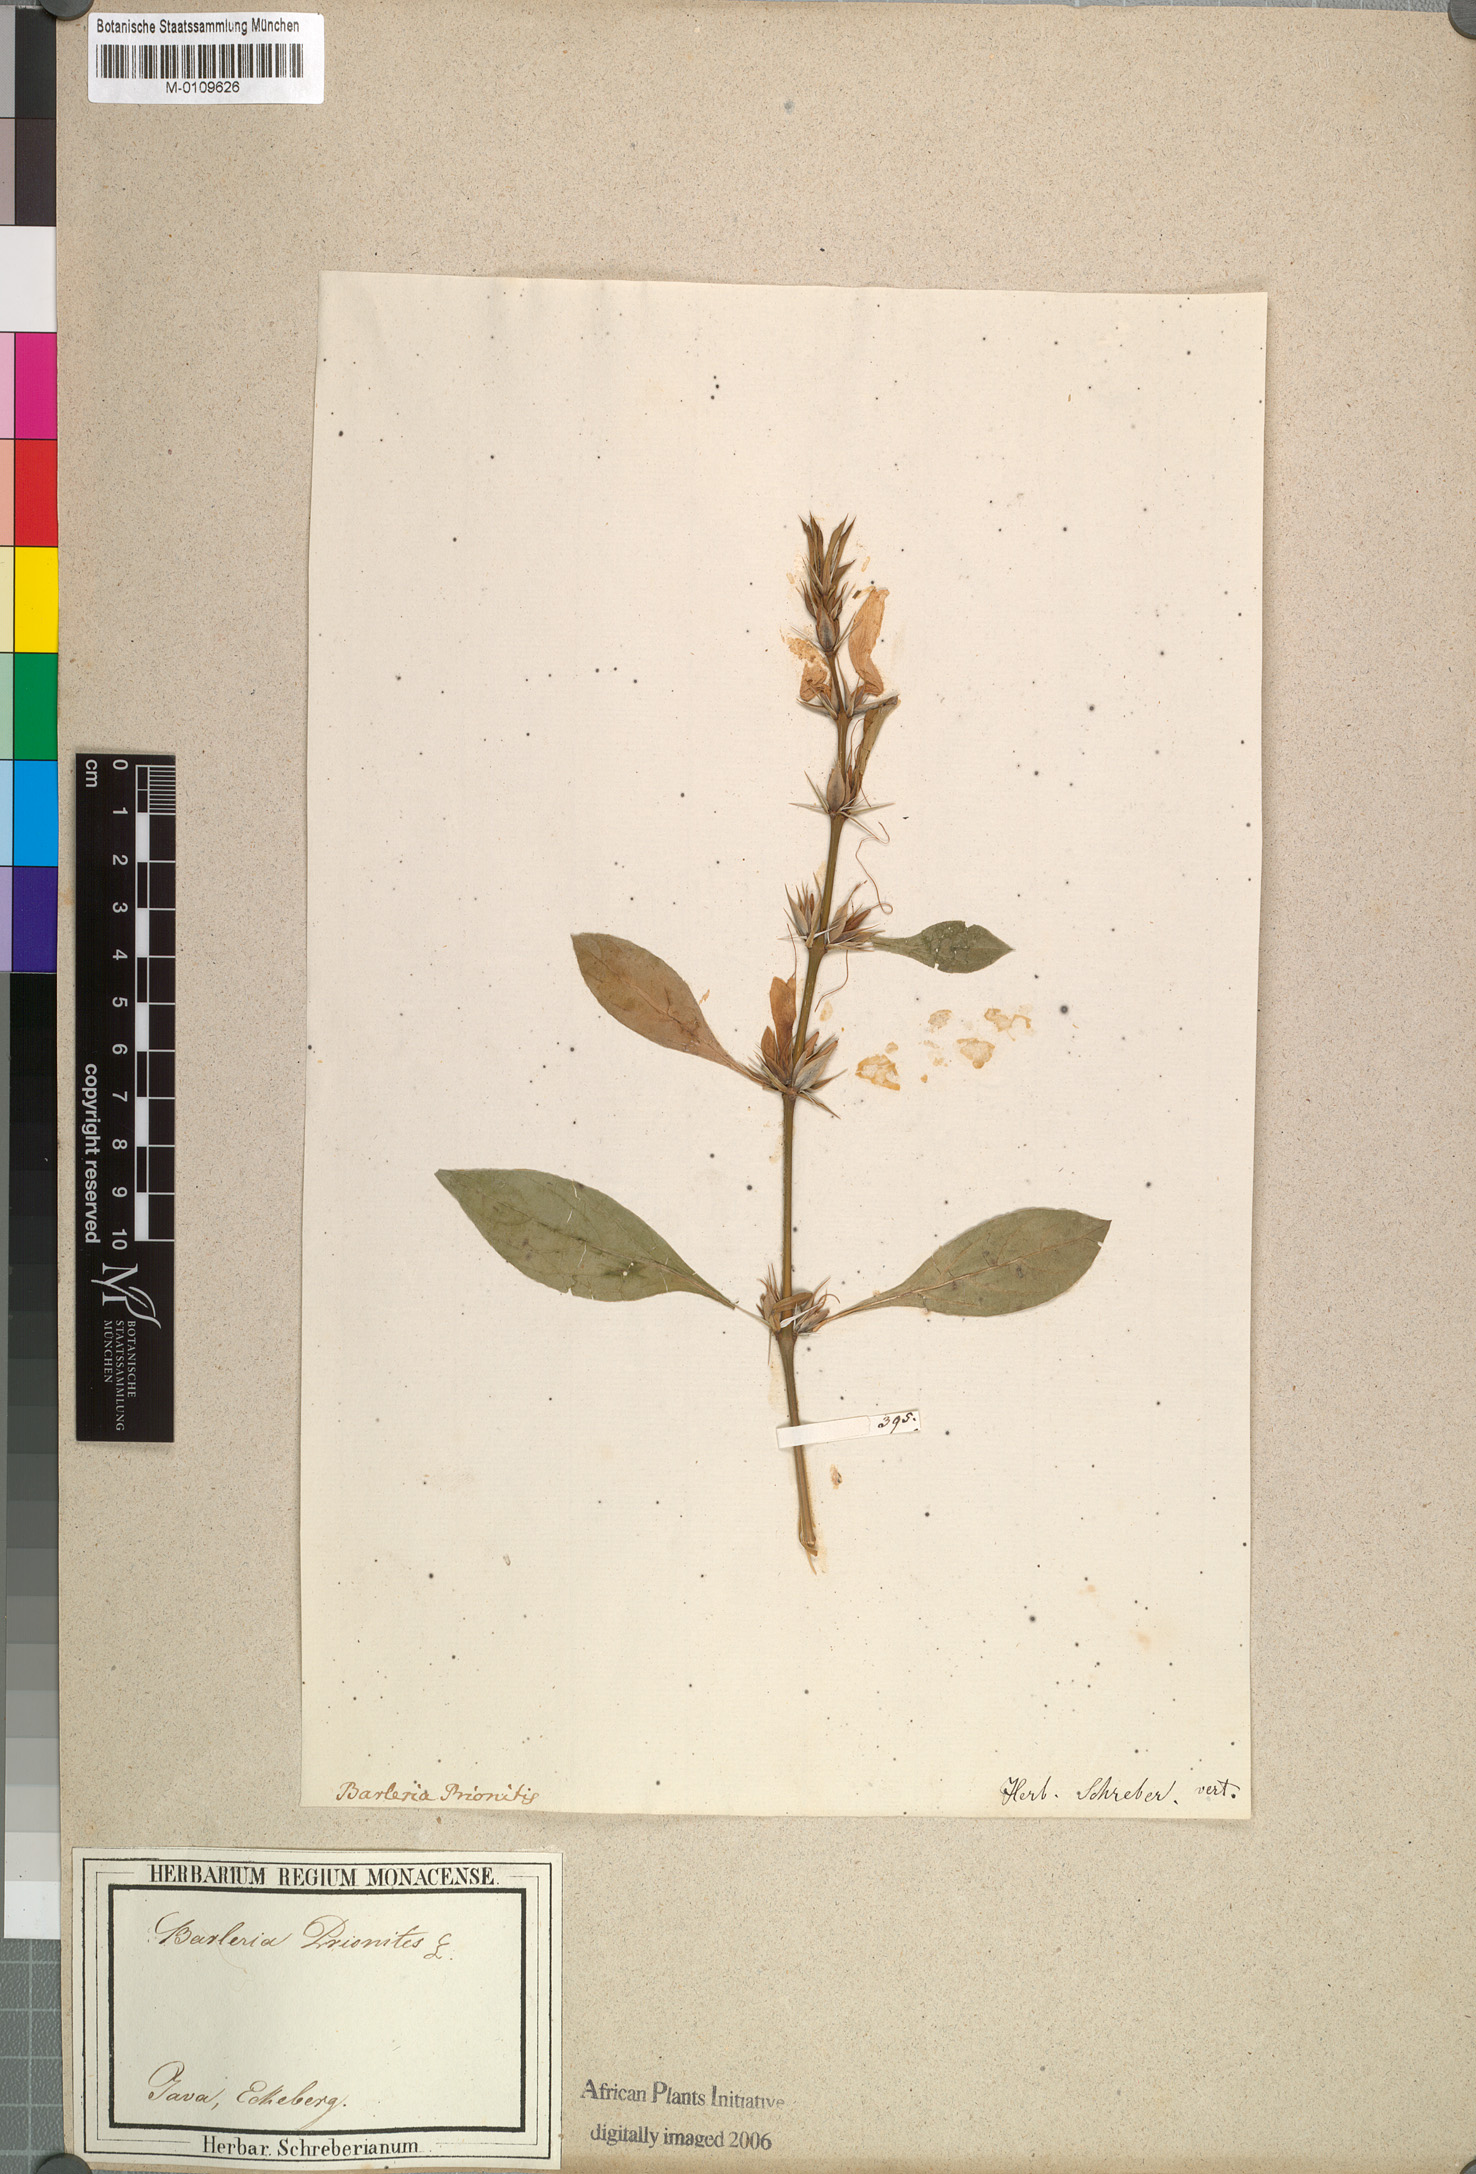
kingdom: Plantae
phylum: Tracheophyta
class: Magnoliopsida
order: Lamiales
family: Acanthaceae
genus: Barleria
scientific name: Barleria prionitis
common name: Barleria
